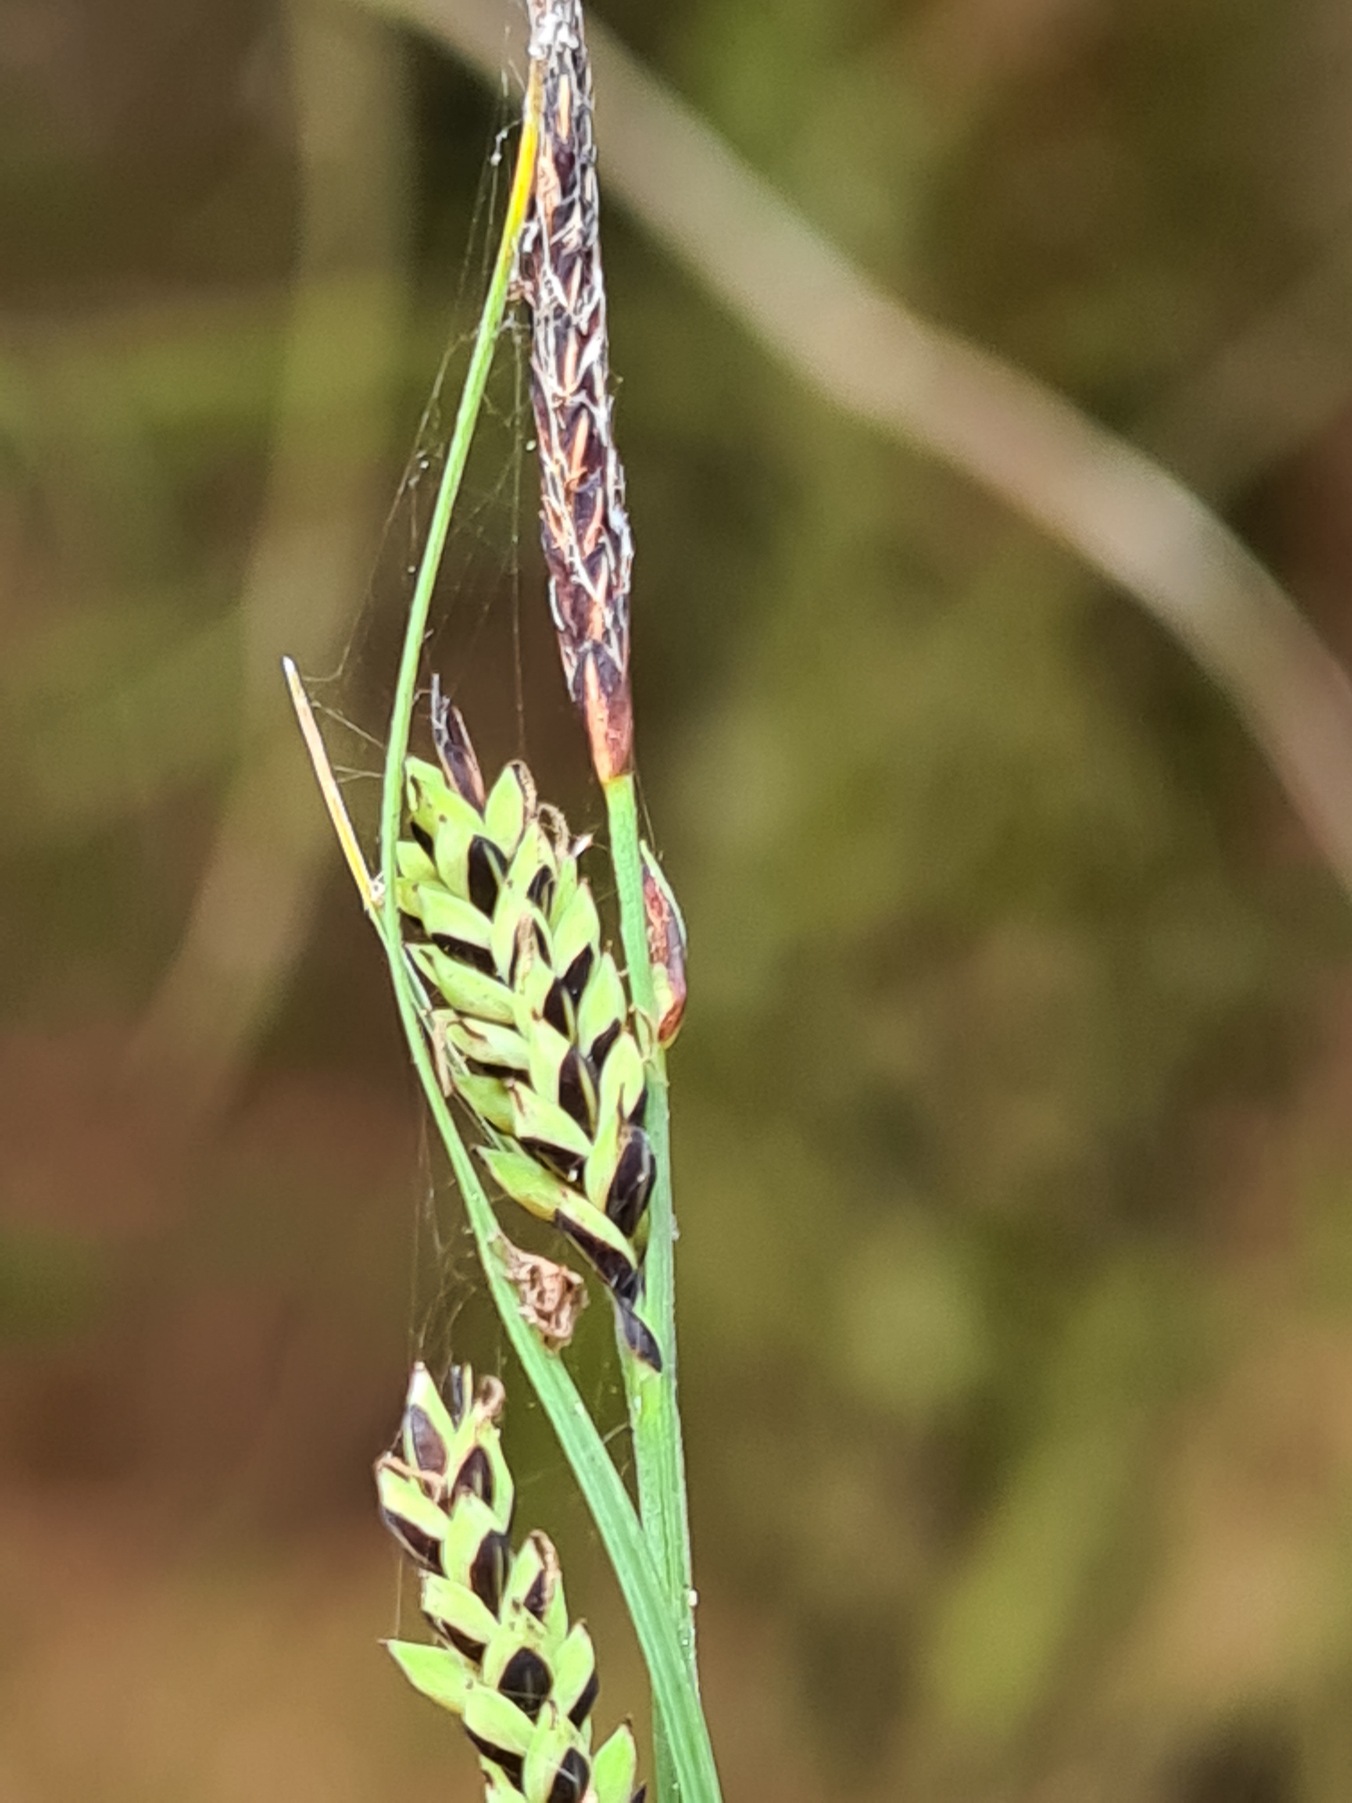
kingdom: Plantae
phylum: Tracheophyta
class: Liliopsida
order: Poales
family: Cyperaceae
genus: Carex
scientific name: Carex nigra
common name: Almindelig star
